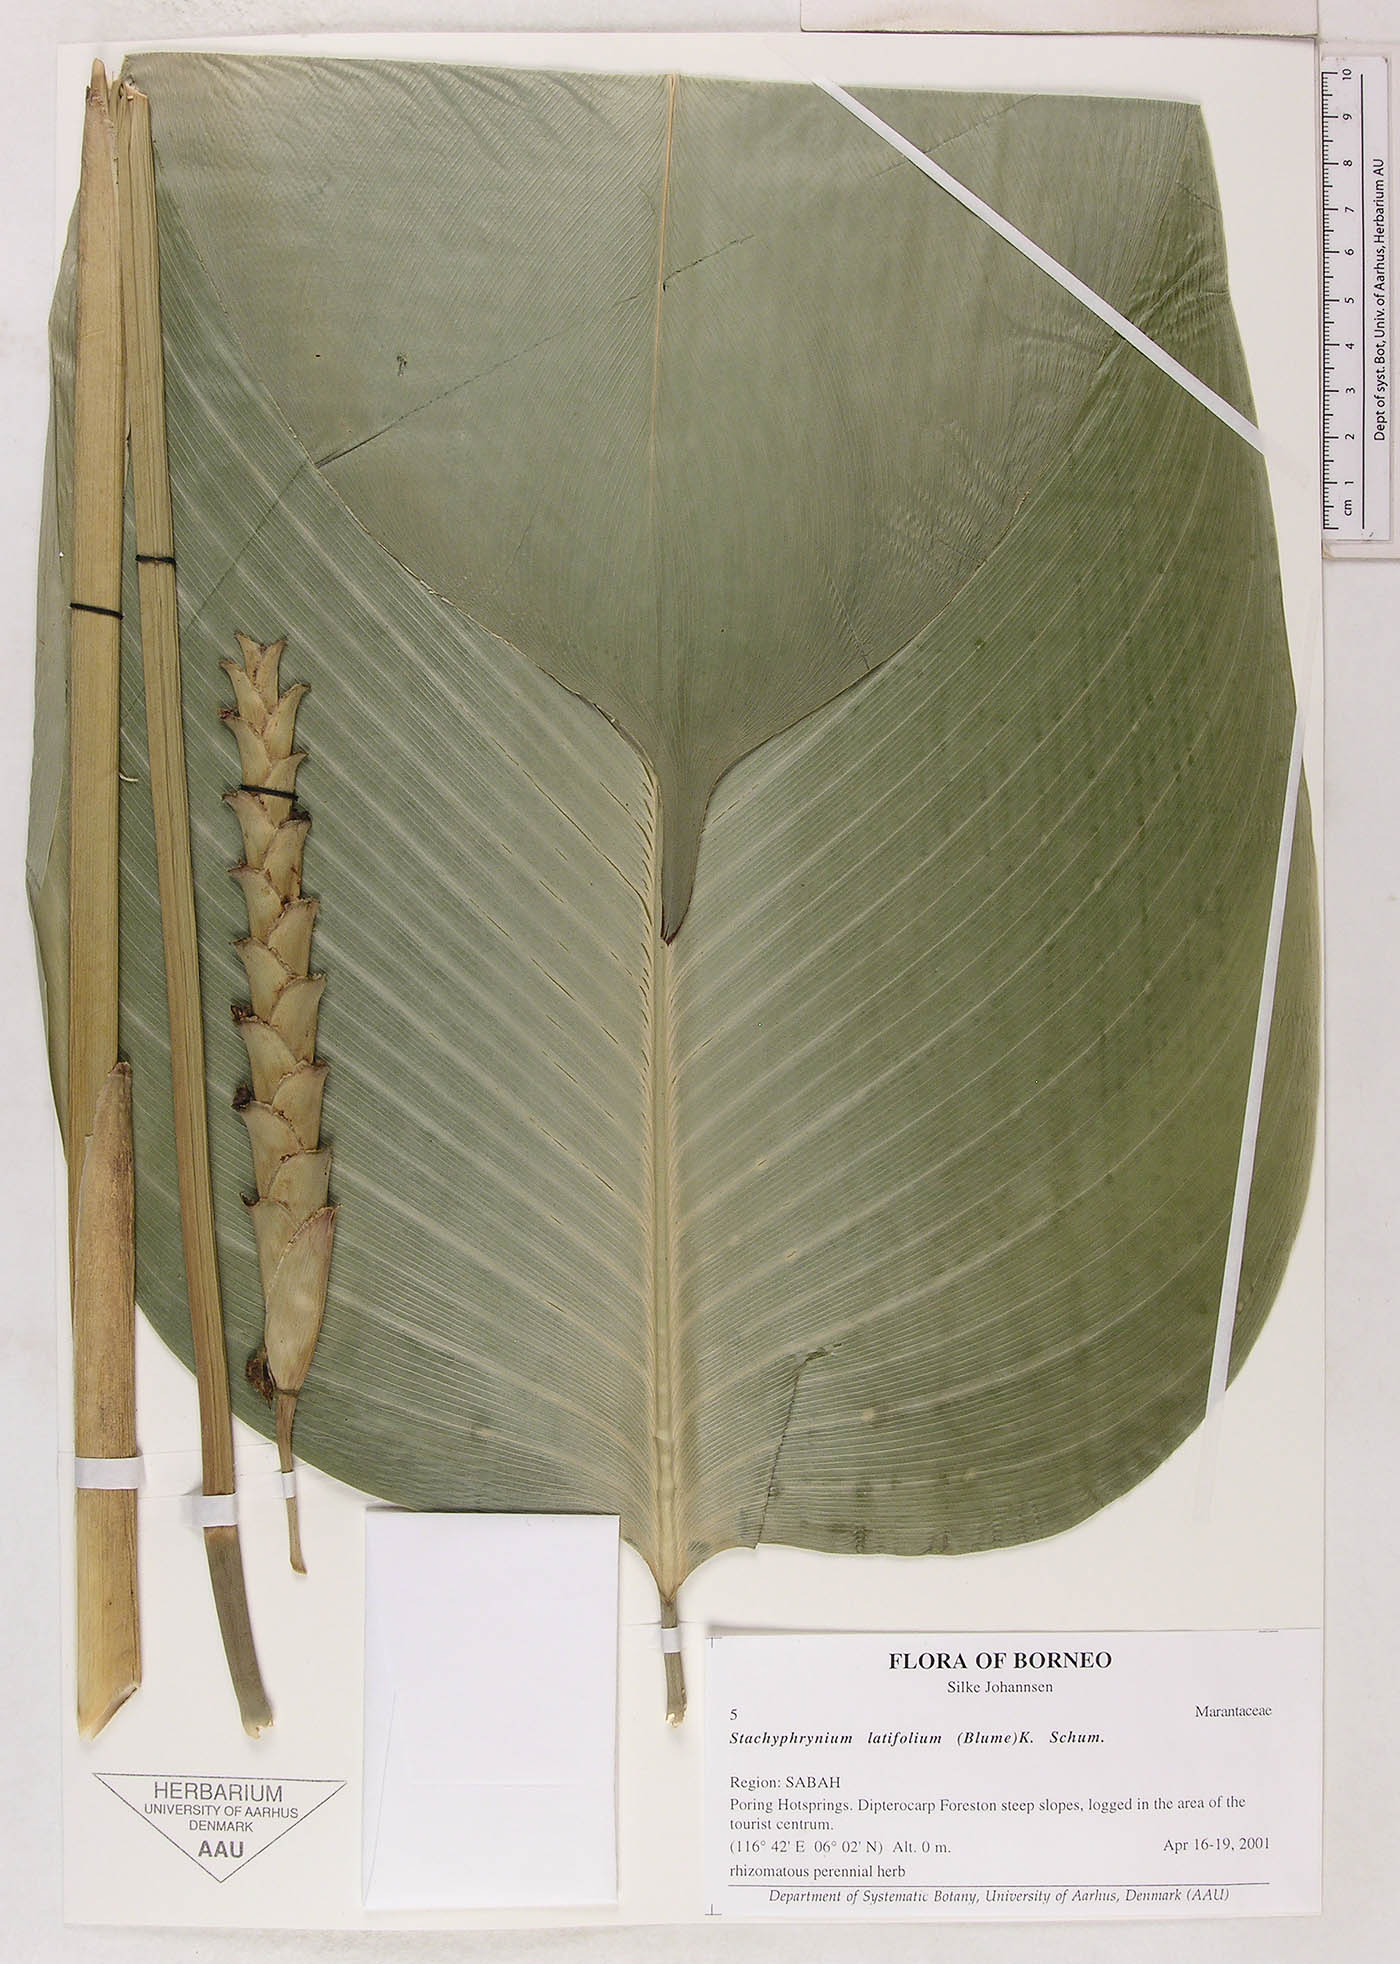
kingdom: Plantae
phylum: Tracheophyta
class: Liliopsida
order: Zingiberales
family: Marantaceae
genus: Stachyphrynium
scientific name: Stachyphrynium latifolium
